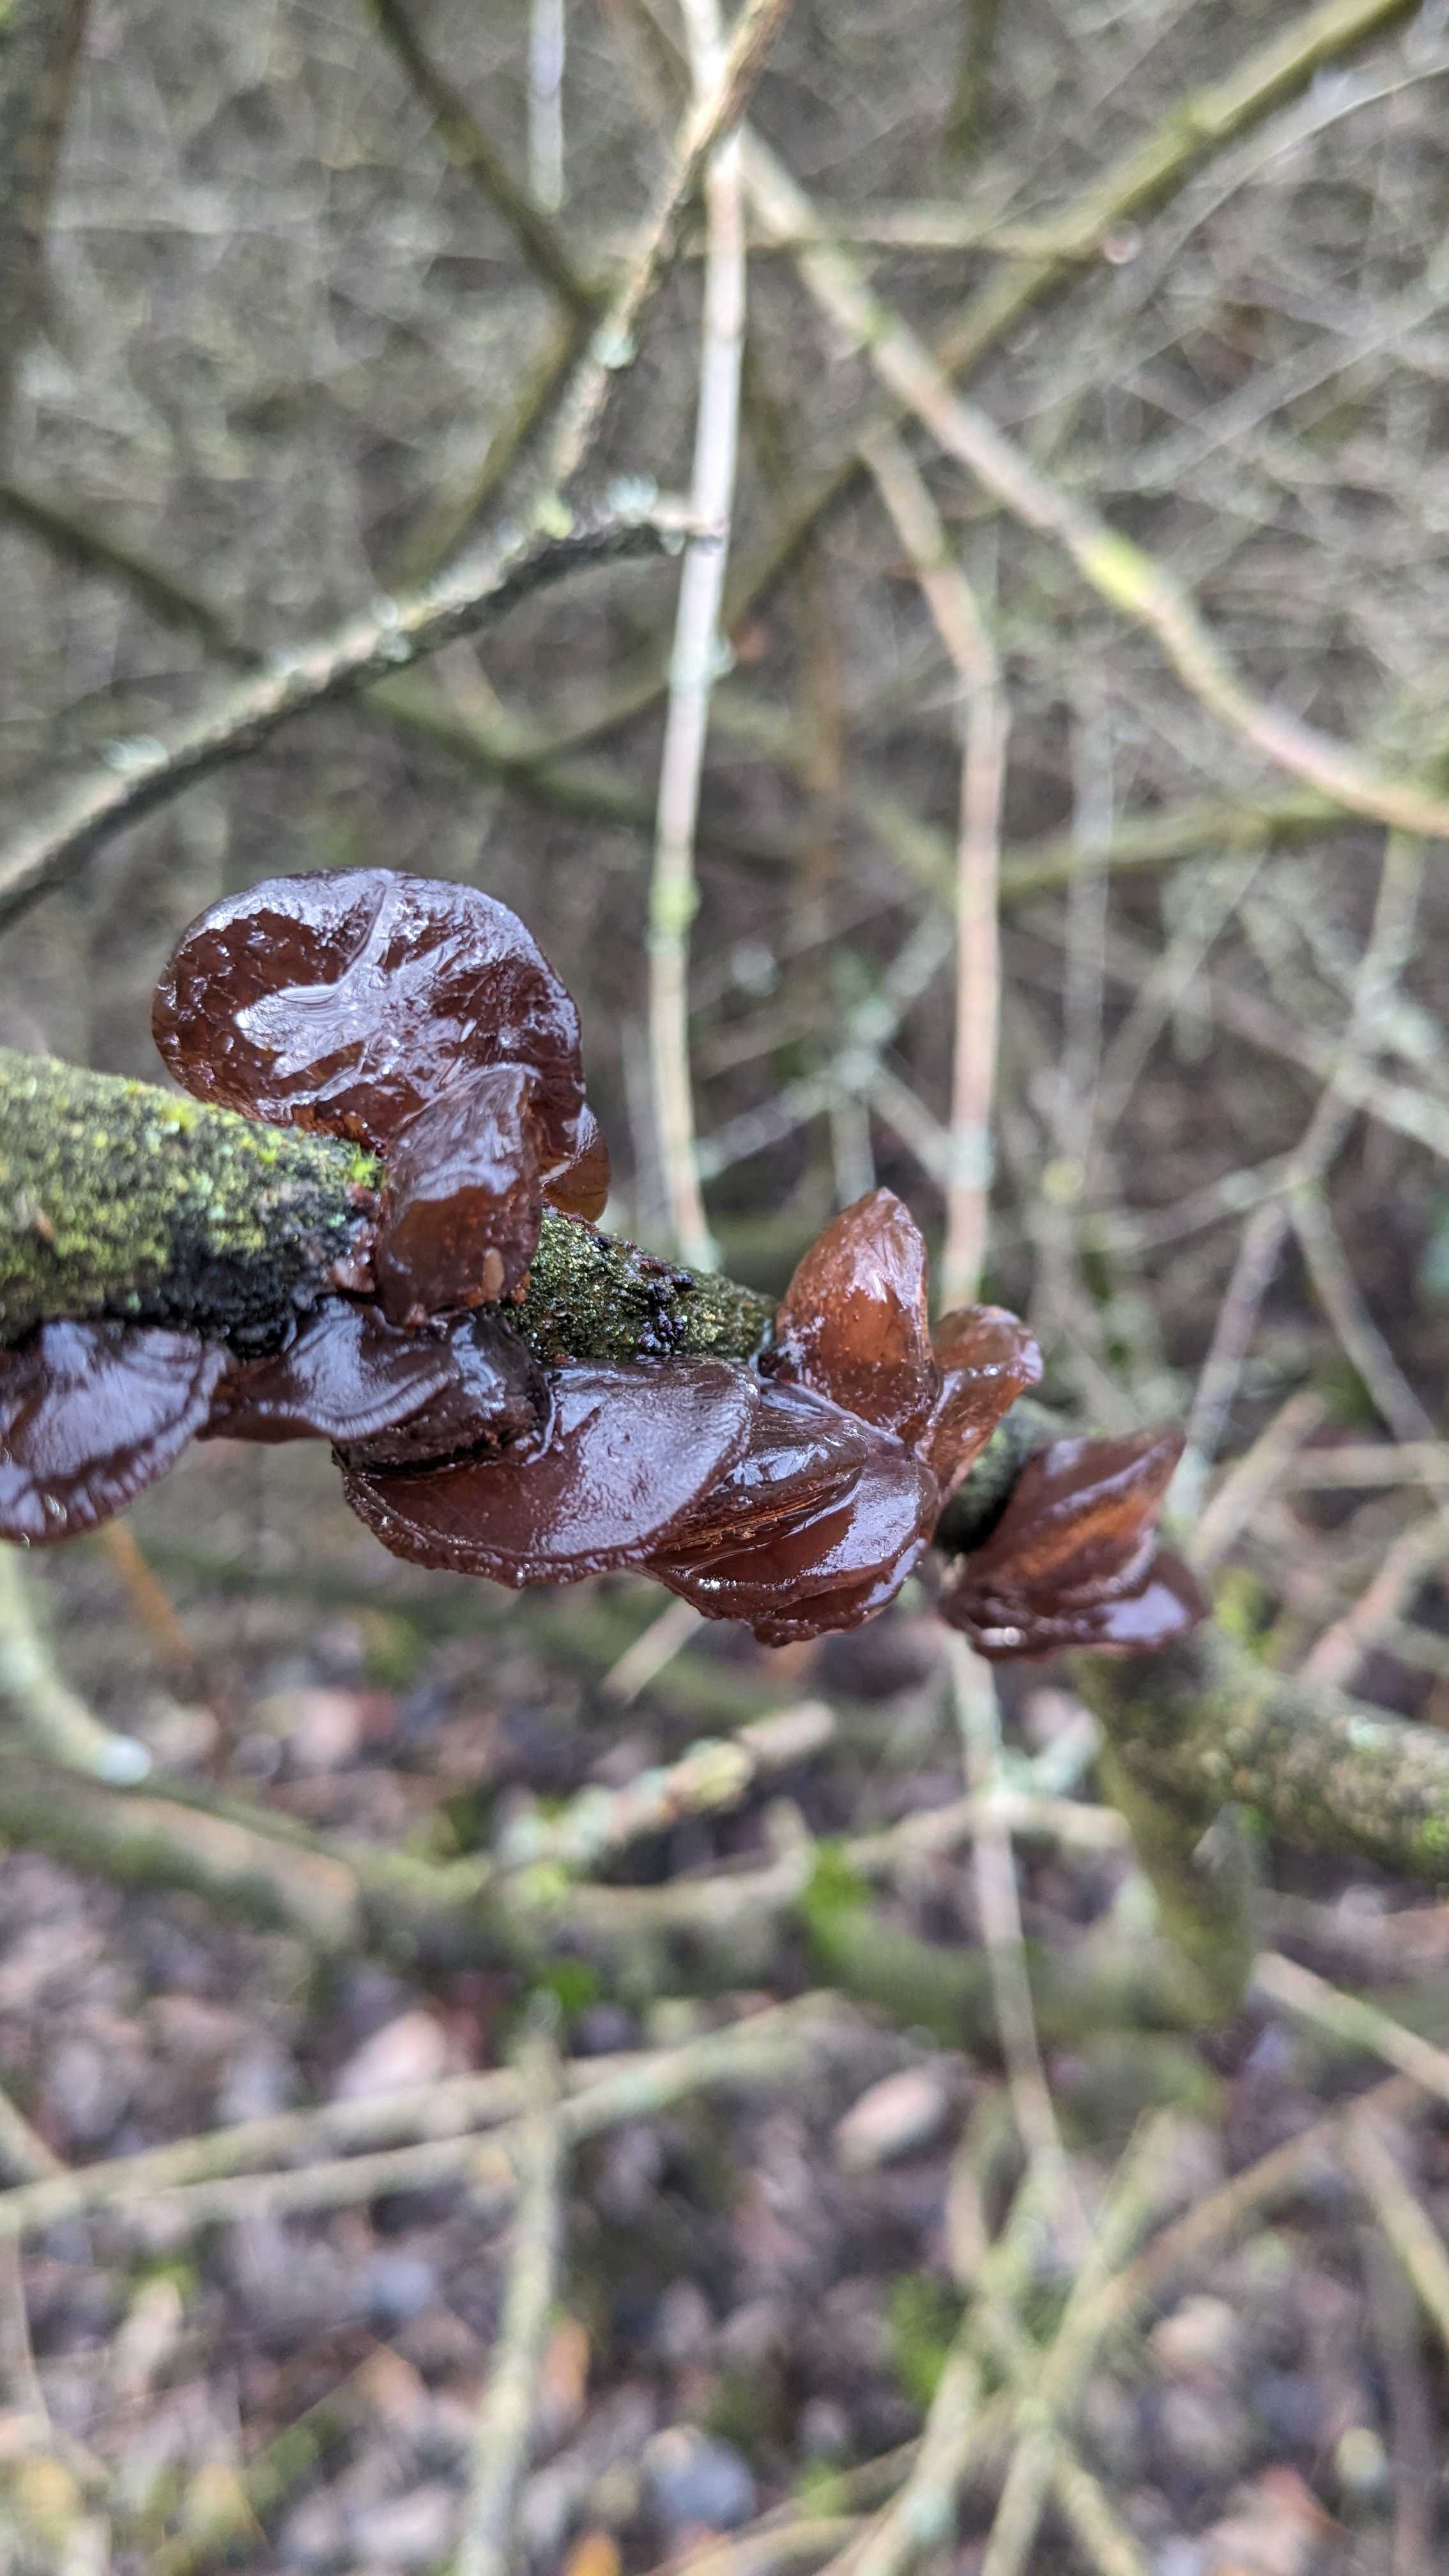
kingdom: Fungi
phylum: Basidiomycota
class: Agaricomycetes
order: Auriculariales
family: Auriculariaceae
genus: Exidia
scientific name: Exidia recisa
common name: pile-bævretop
